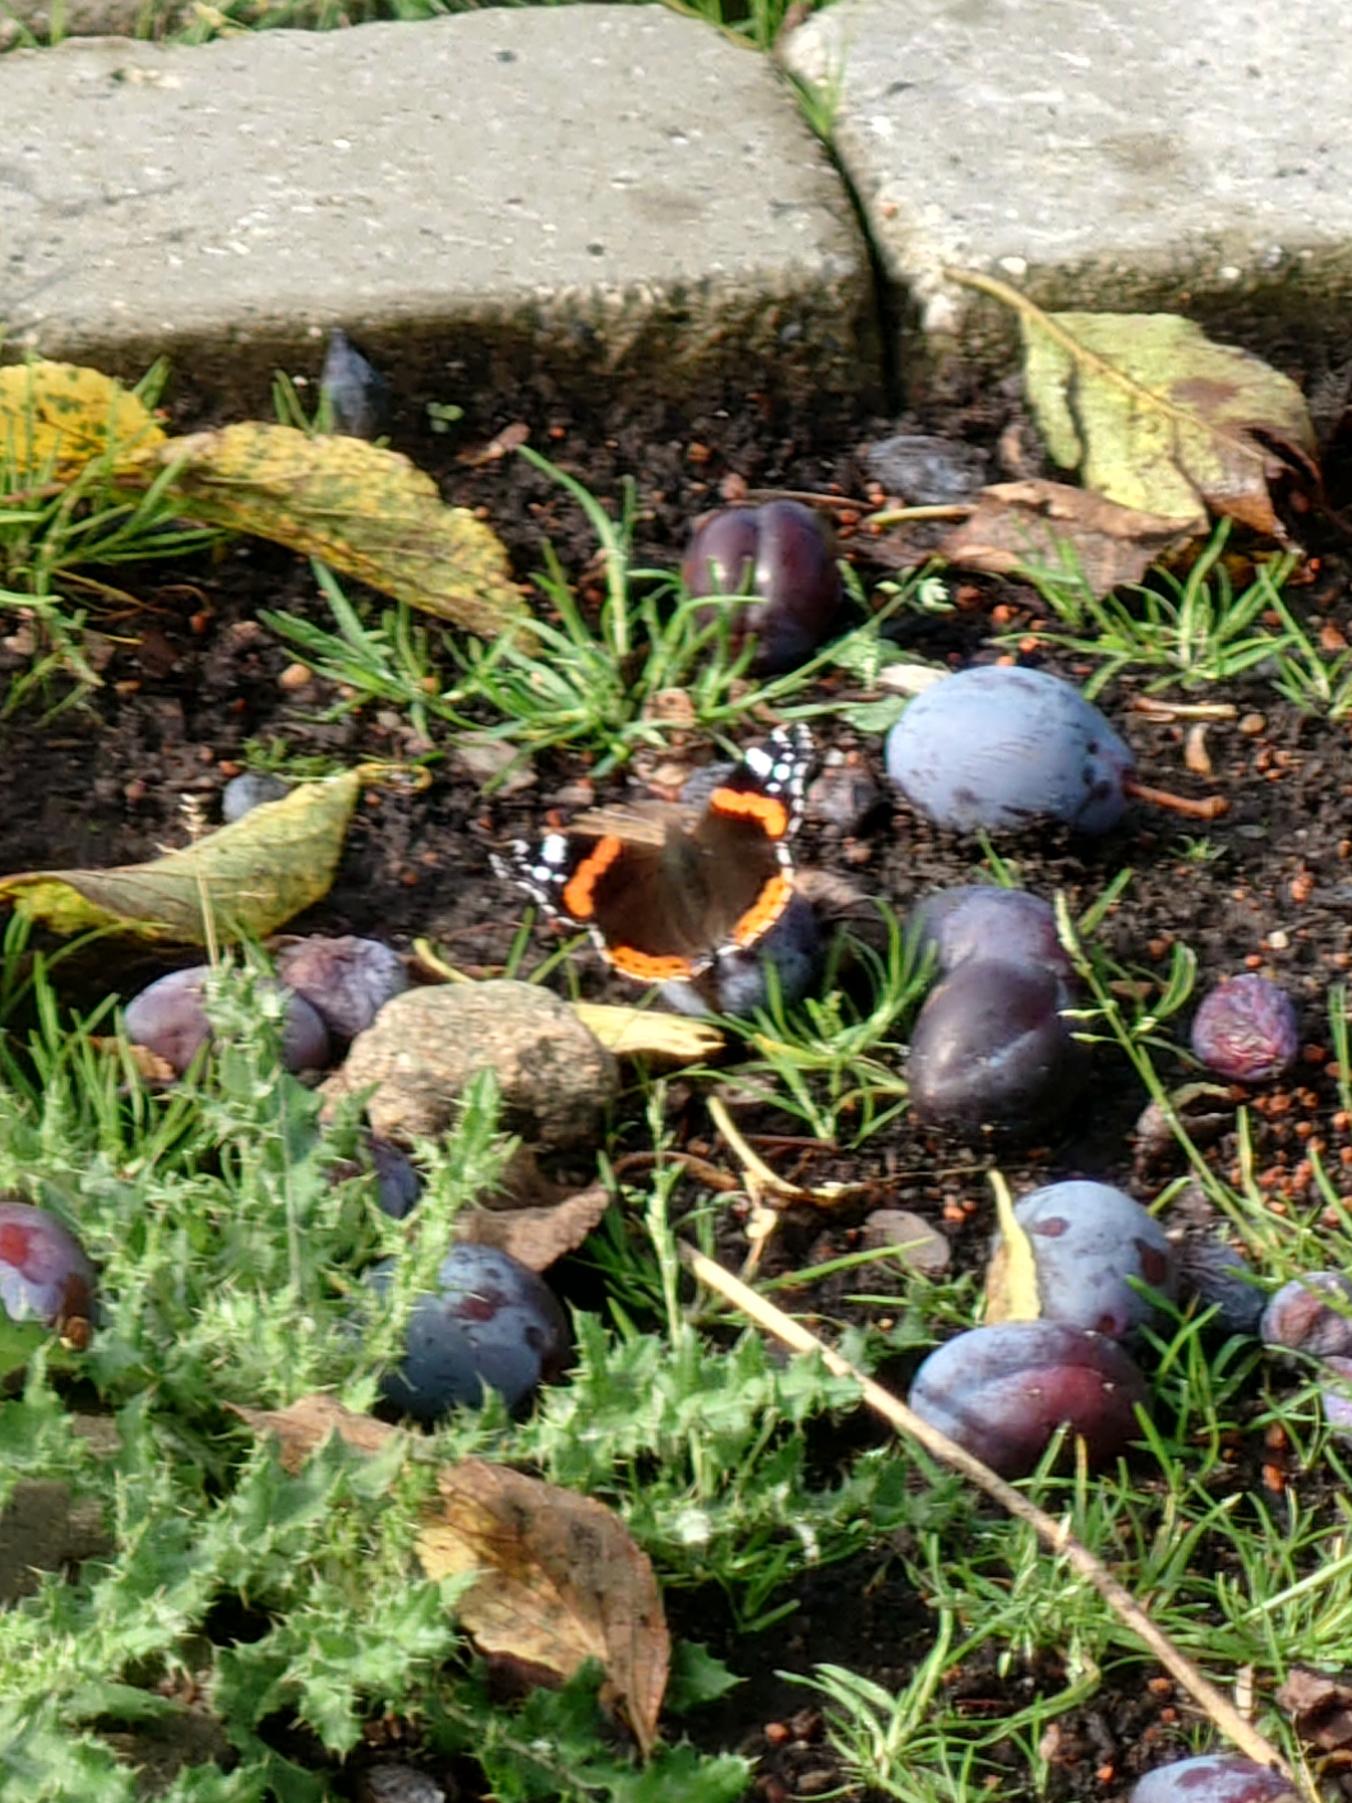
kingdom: Animalia
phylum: Arthropoda
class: Insecta
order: Lepidoptera
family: Nymphalidae
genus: Vanessa
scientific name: Vanessa atalanta
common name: Admiral
